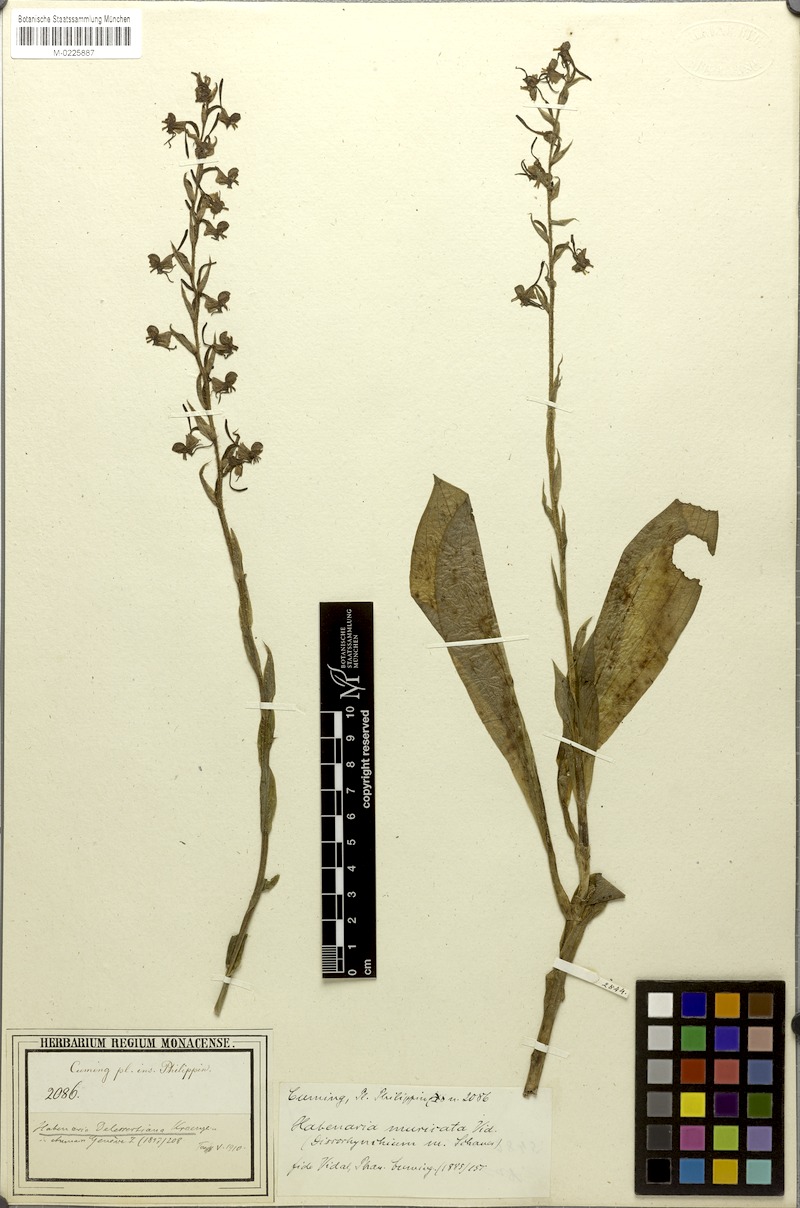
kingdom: Plantae
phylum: Tracheophyta
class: Liliopsida
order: Asparagales
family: Orchidaceae
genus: Habenaria
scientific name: Habenaria stenopetala
